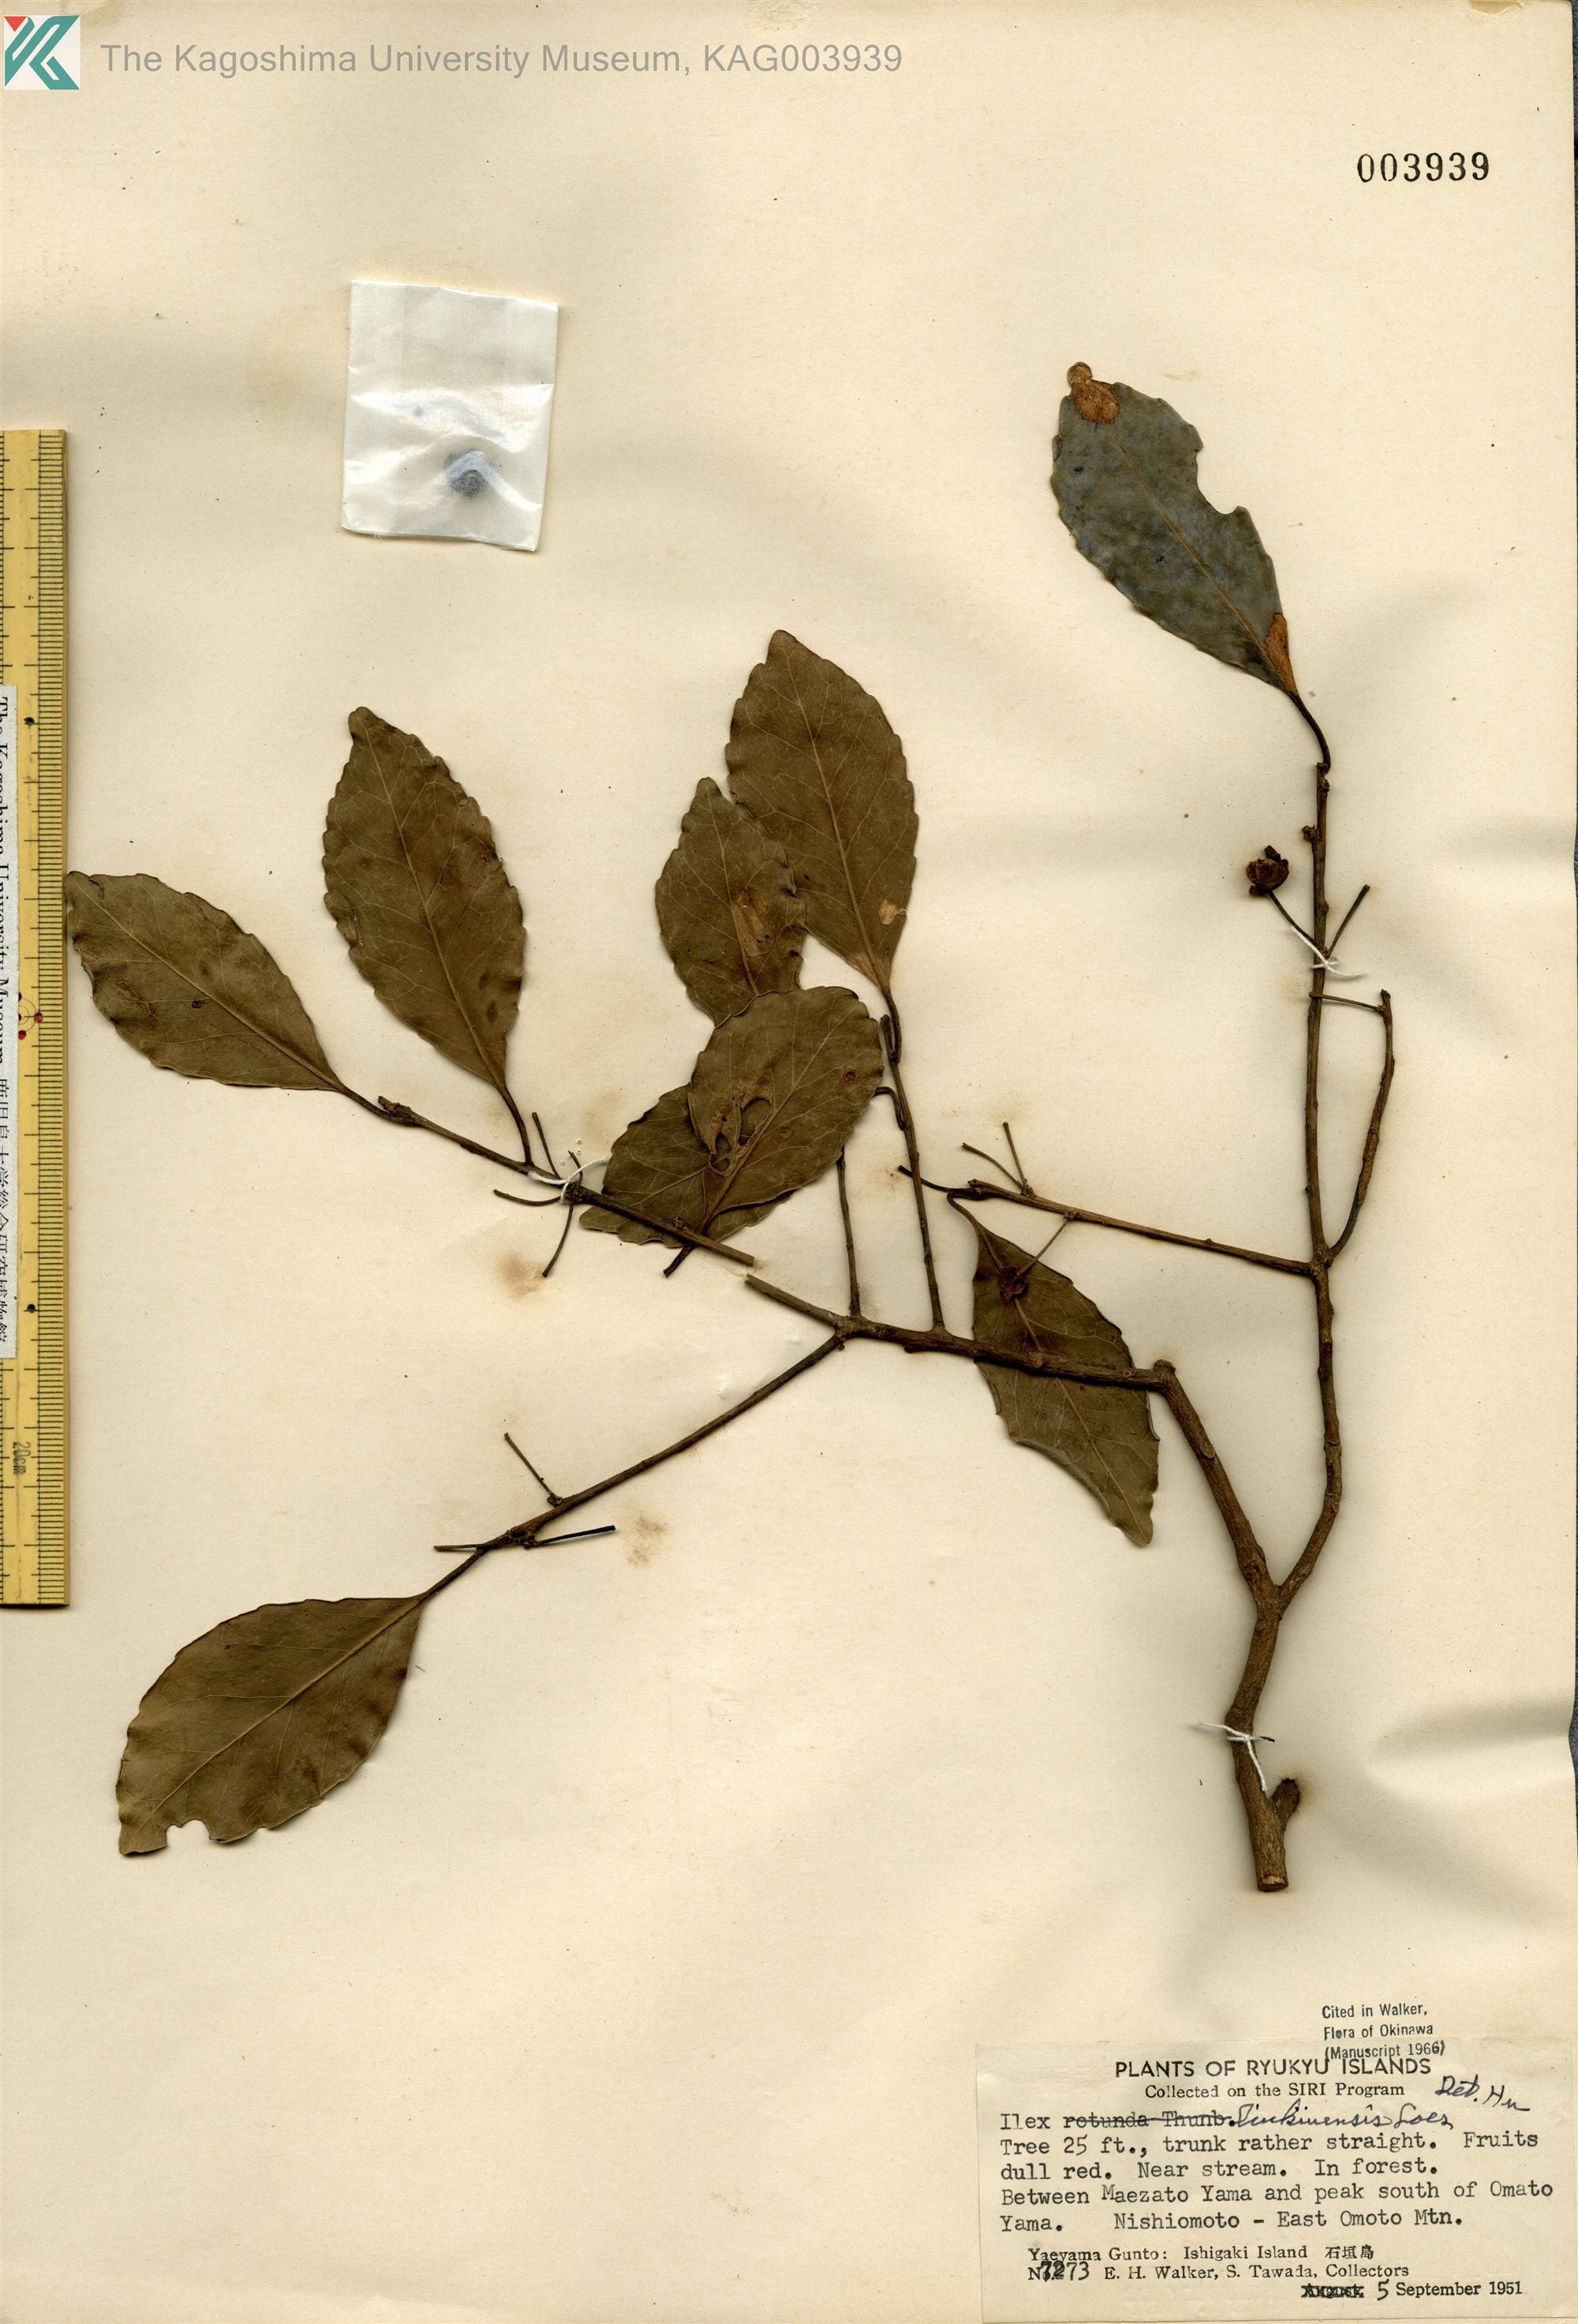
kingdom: Plantae
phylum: Tracheophyta
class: Magnoliopsida
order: Aquifoliales
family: Aquifoliaceae
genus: Ilex
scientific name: Ilex liukiuensis
